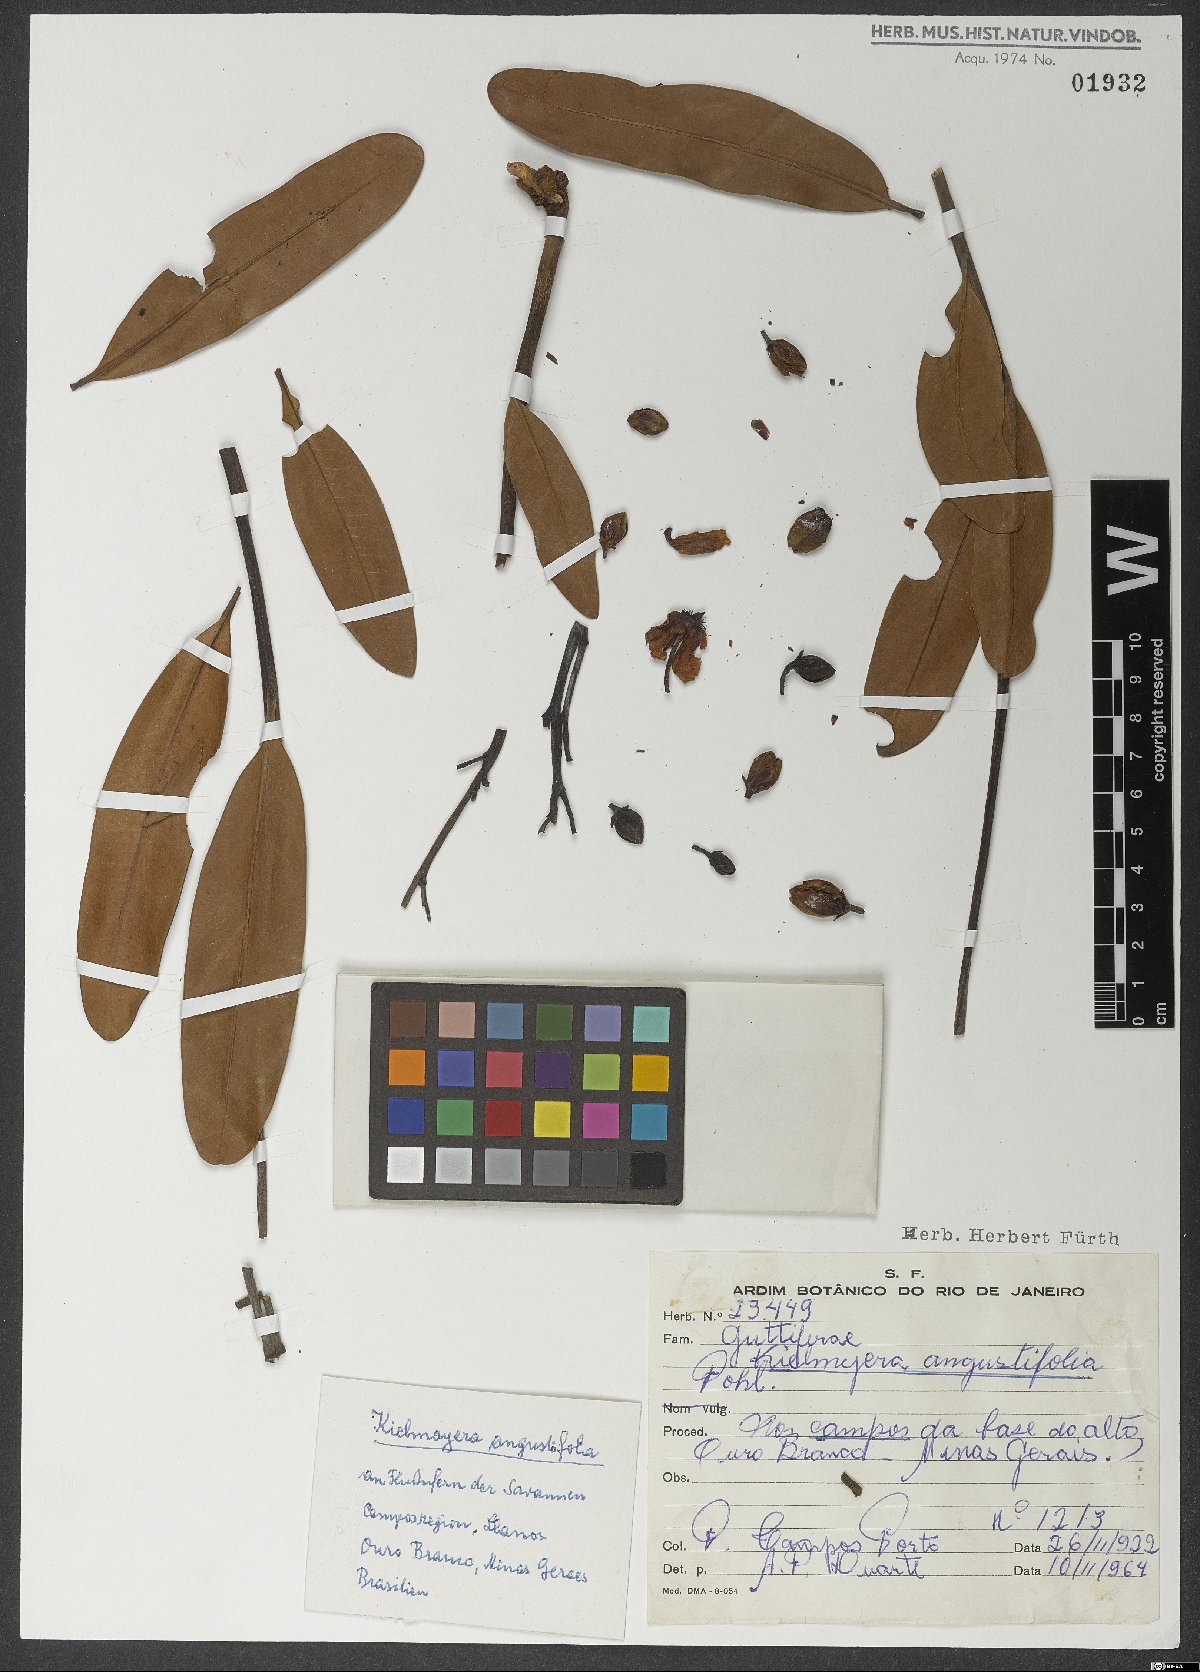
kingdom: Plantae
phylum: Tracheophyta
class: Magnoliopsida
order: Malpighiales
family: Calophyllaceae
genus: Kielmeyera
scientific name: Kielmeyera pumila
